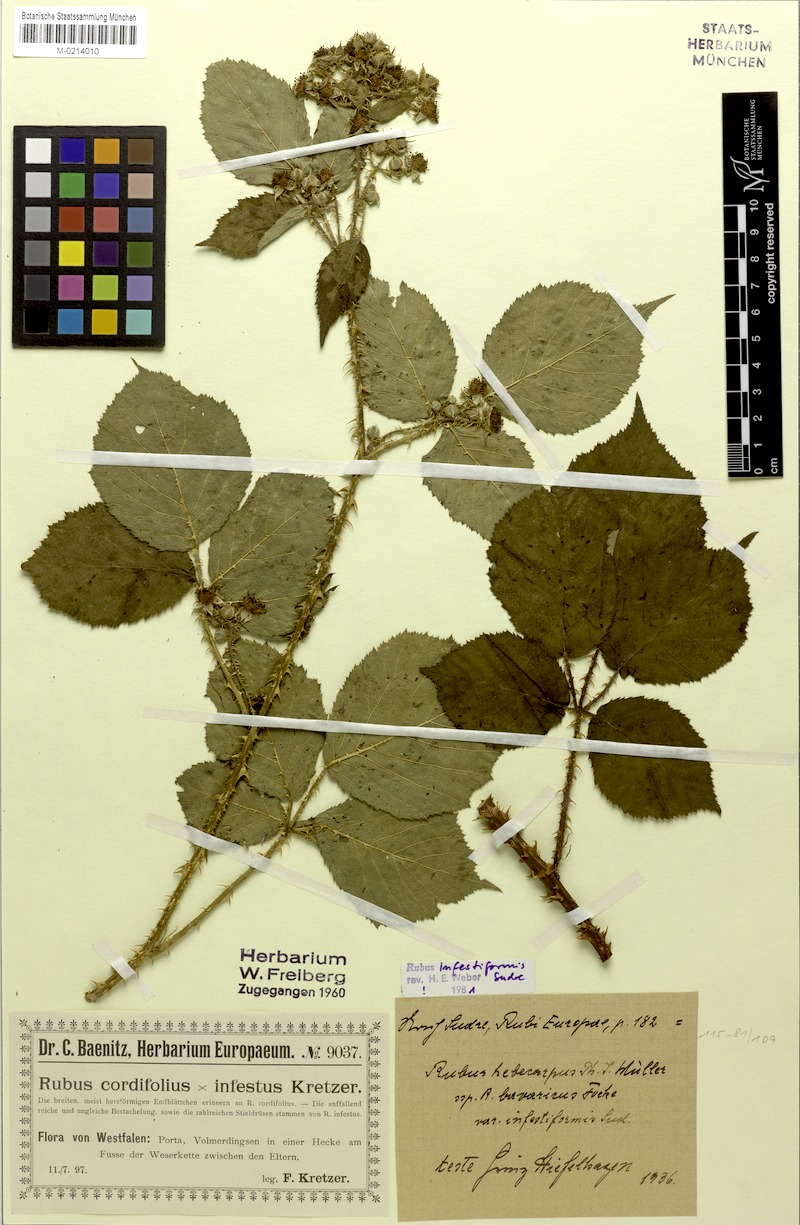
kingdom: Plantae
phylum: Tracheophyta
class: Magnoliopsida
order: Rosales
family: Rosaceae
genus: Rubus
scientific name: Rubus hebecarpos
